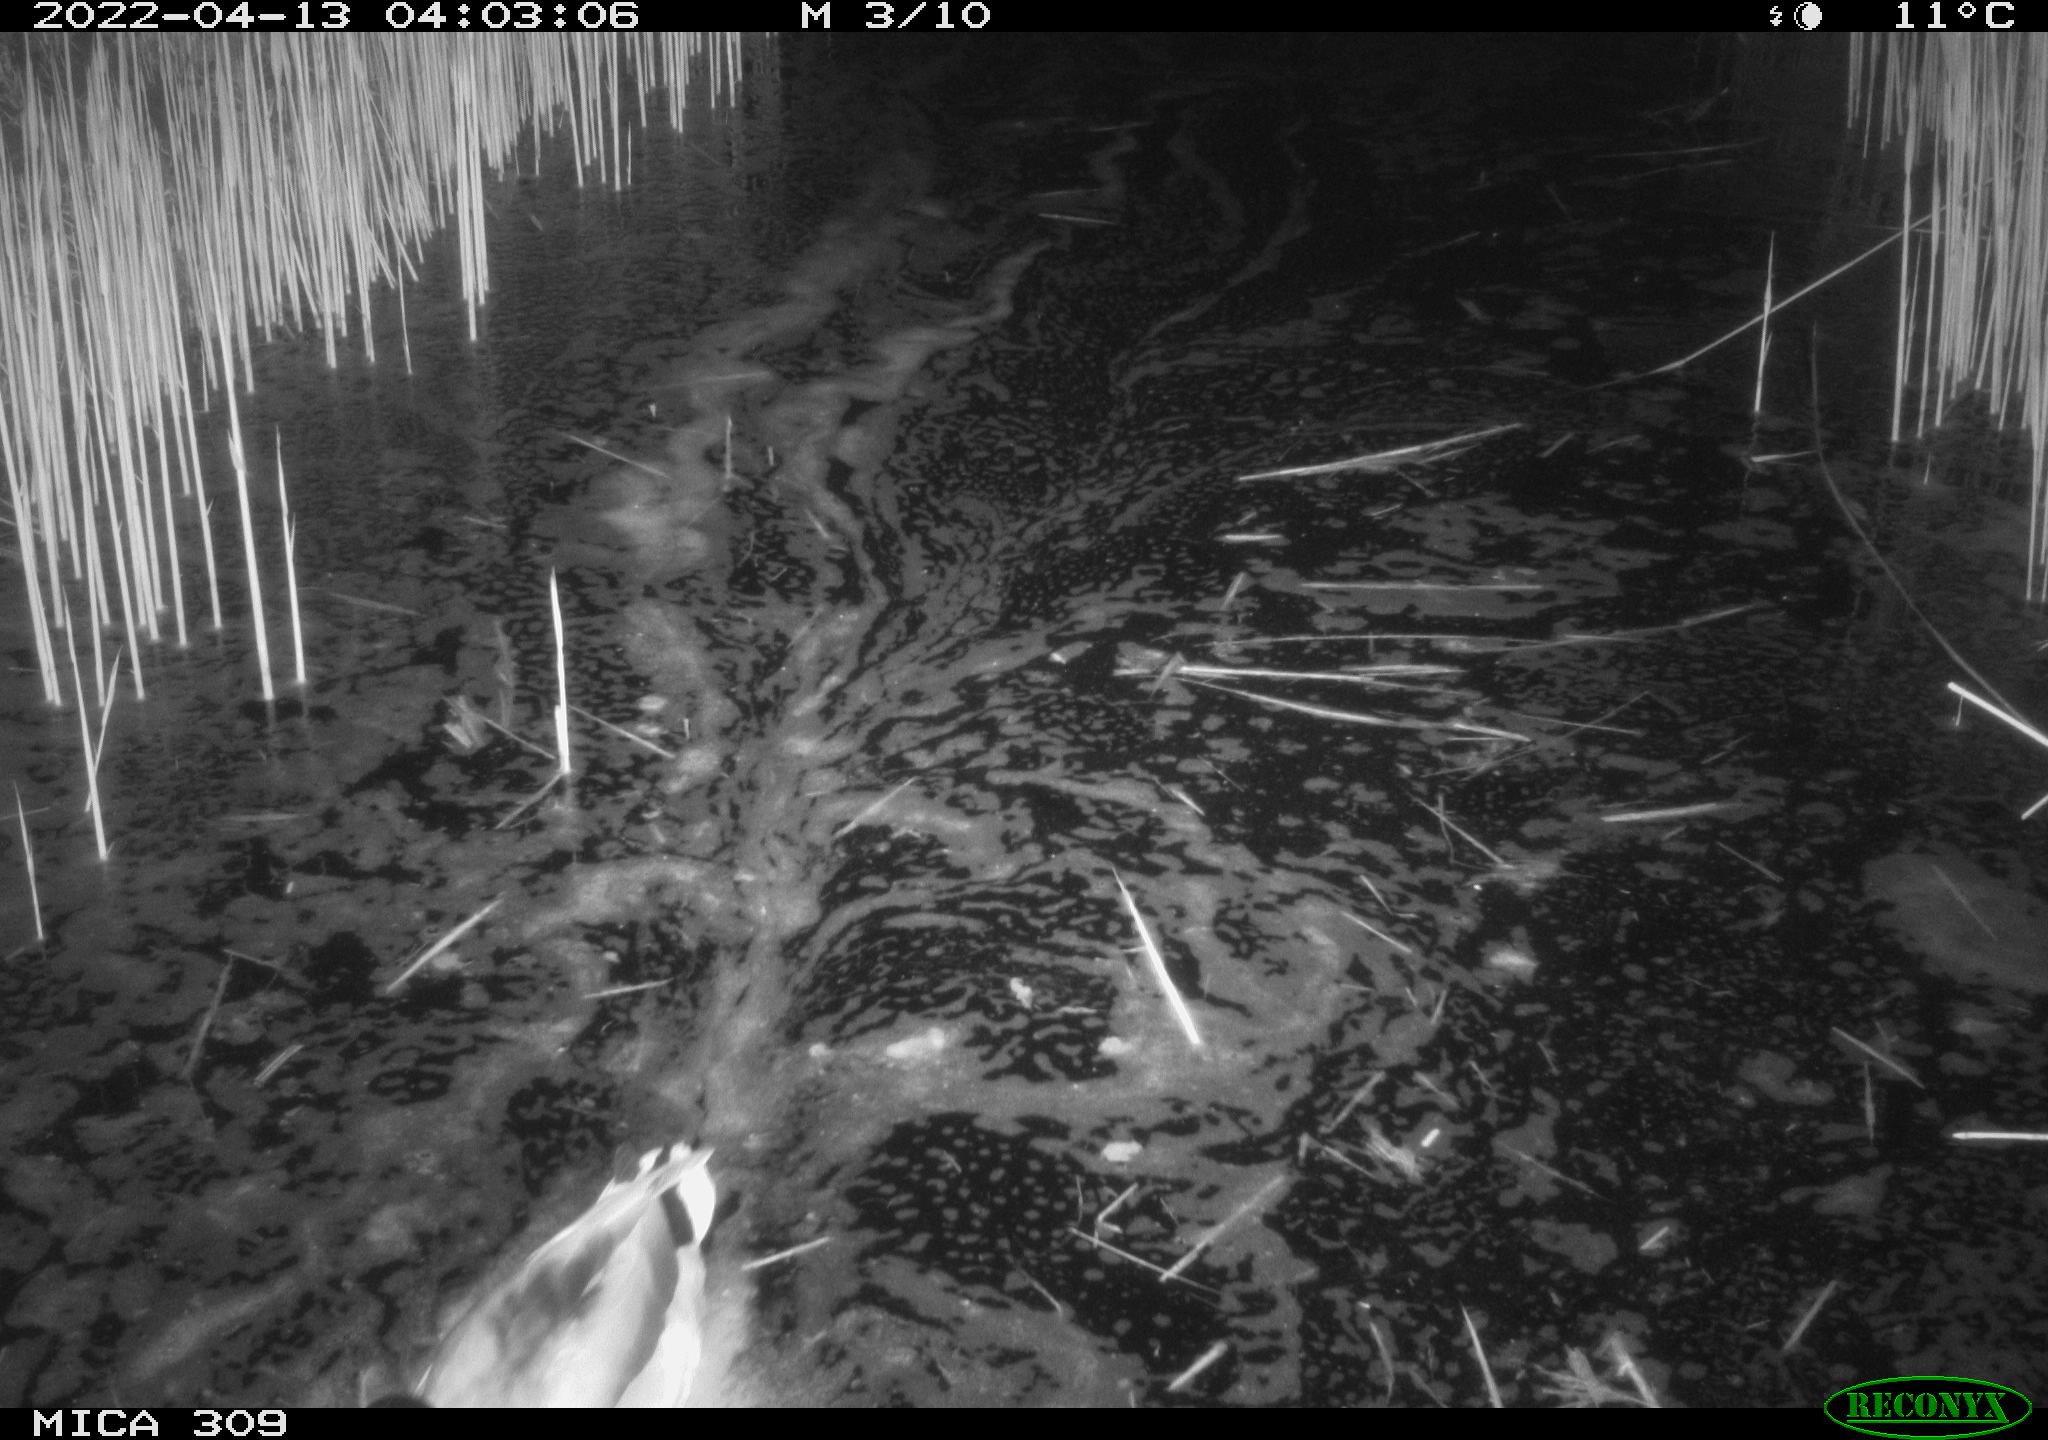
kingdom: Animalia
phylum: Chordata
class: Aves
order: Anseriformes
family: Anatidae
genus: Anas
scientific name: Anas platyrhynchos
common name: Mallard
